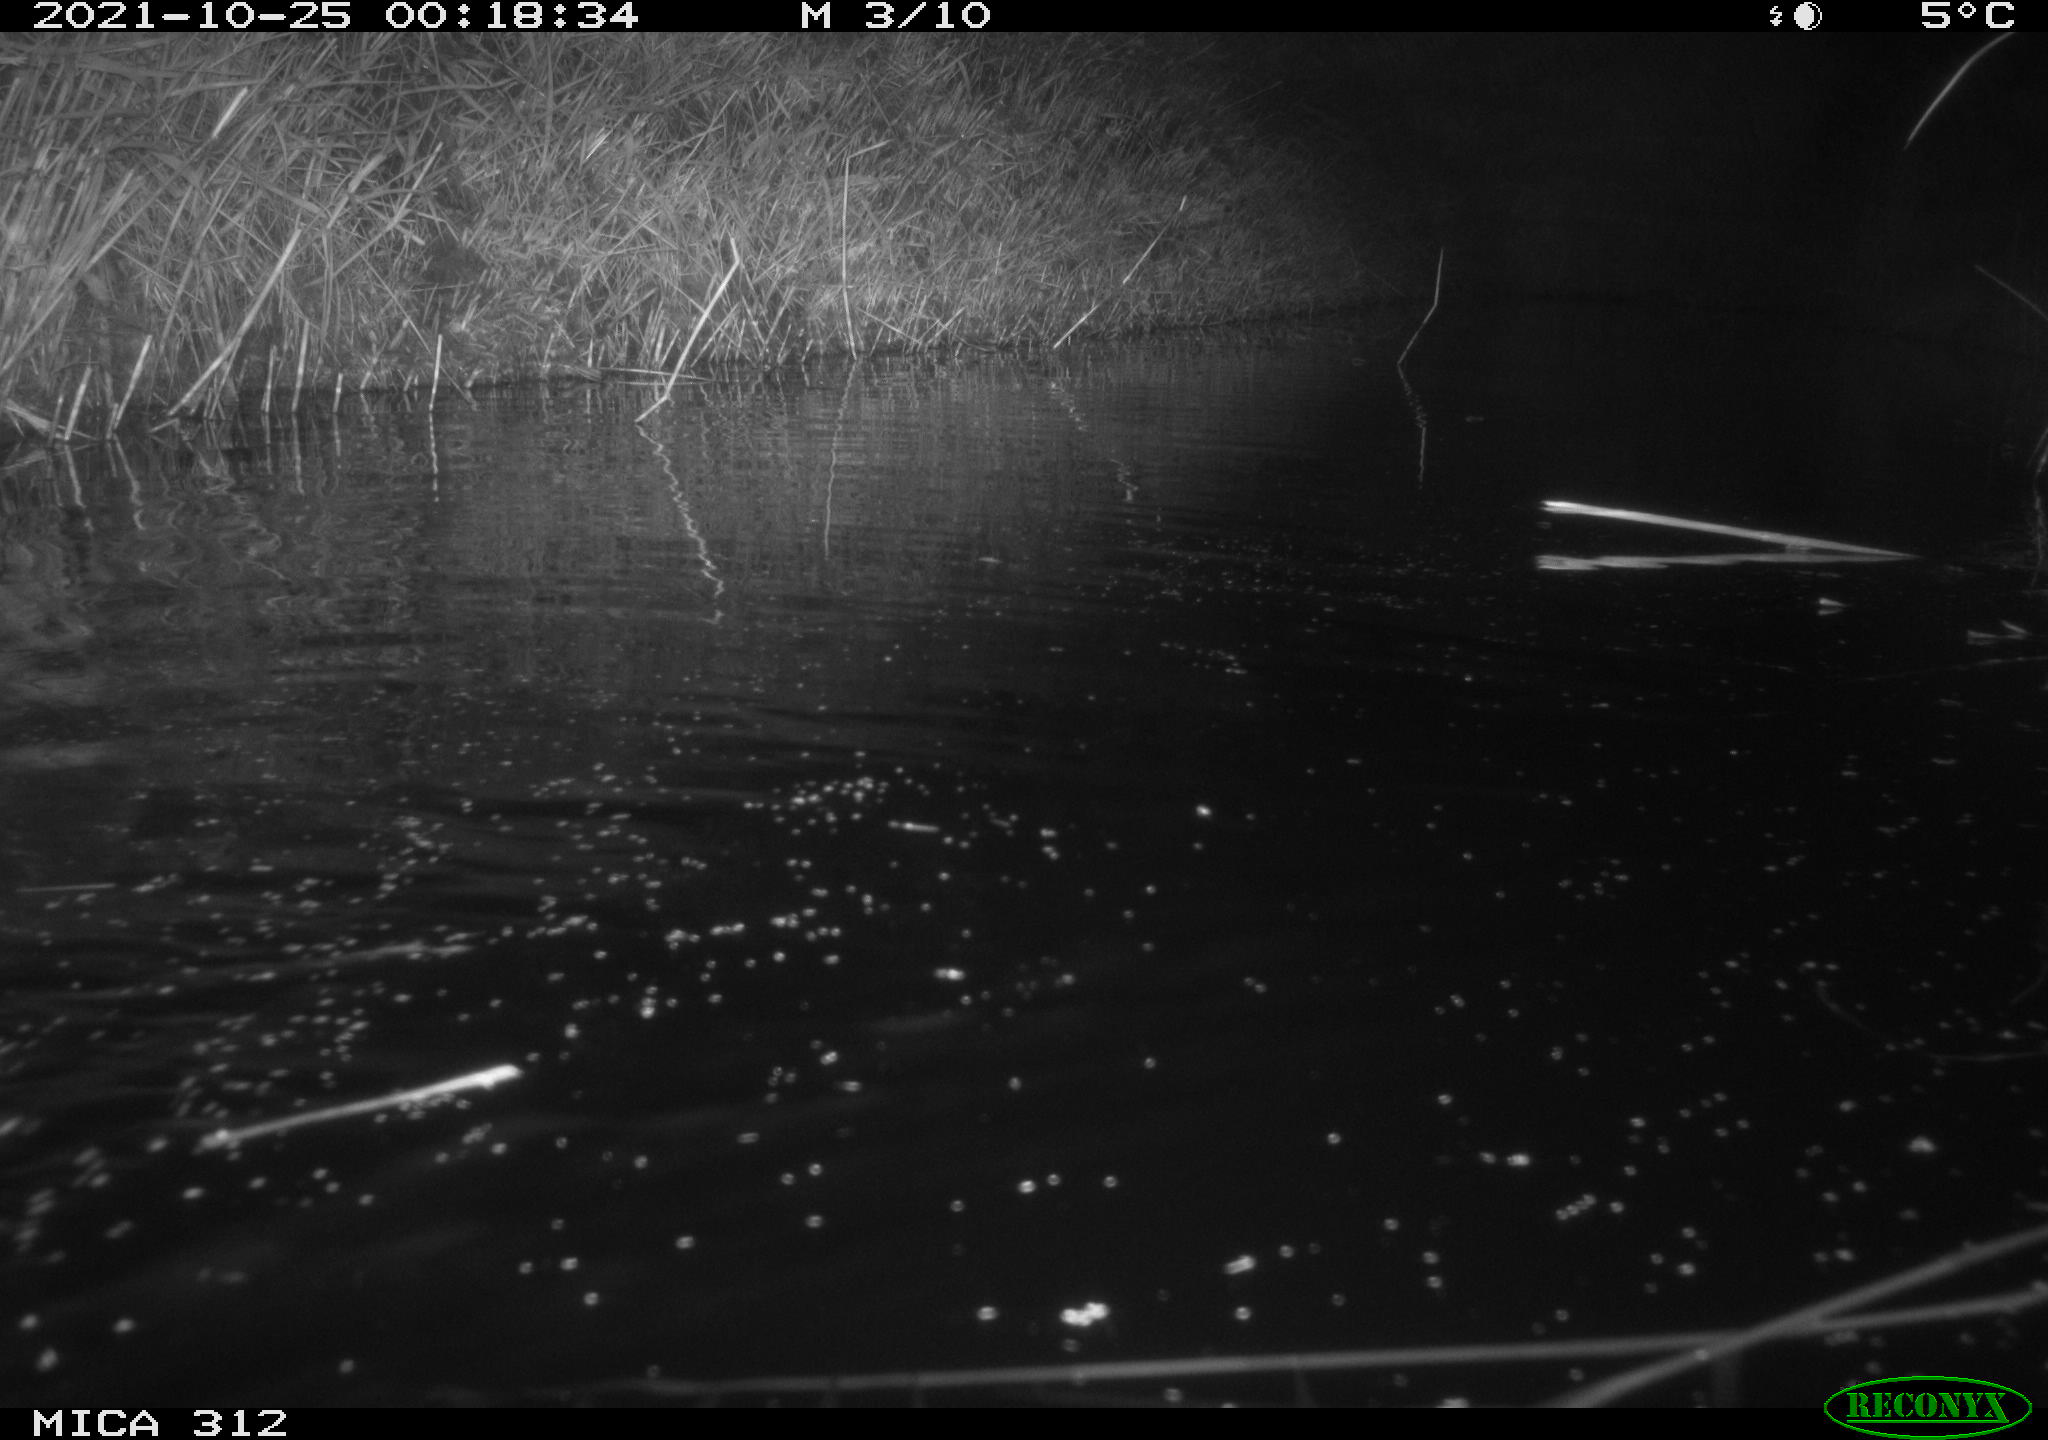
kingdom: Animalia
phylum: Chordata
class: Mammalia
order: Rodentia
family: Muridae
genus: Rattus
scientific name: Rattus norvegicus
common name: Brown rat
